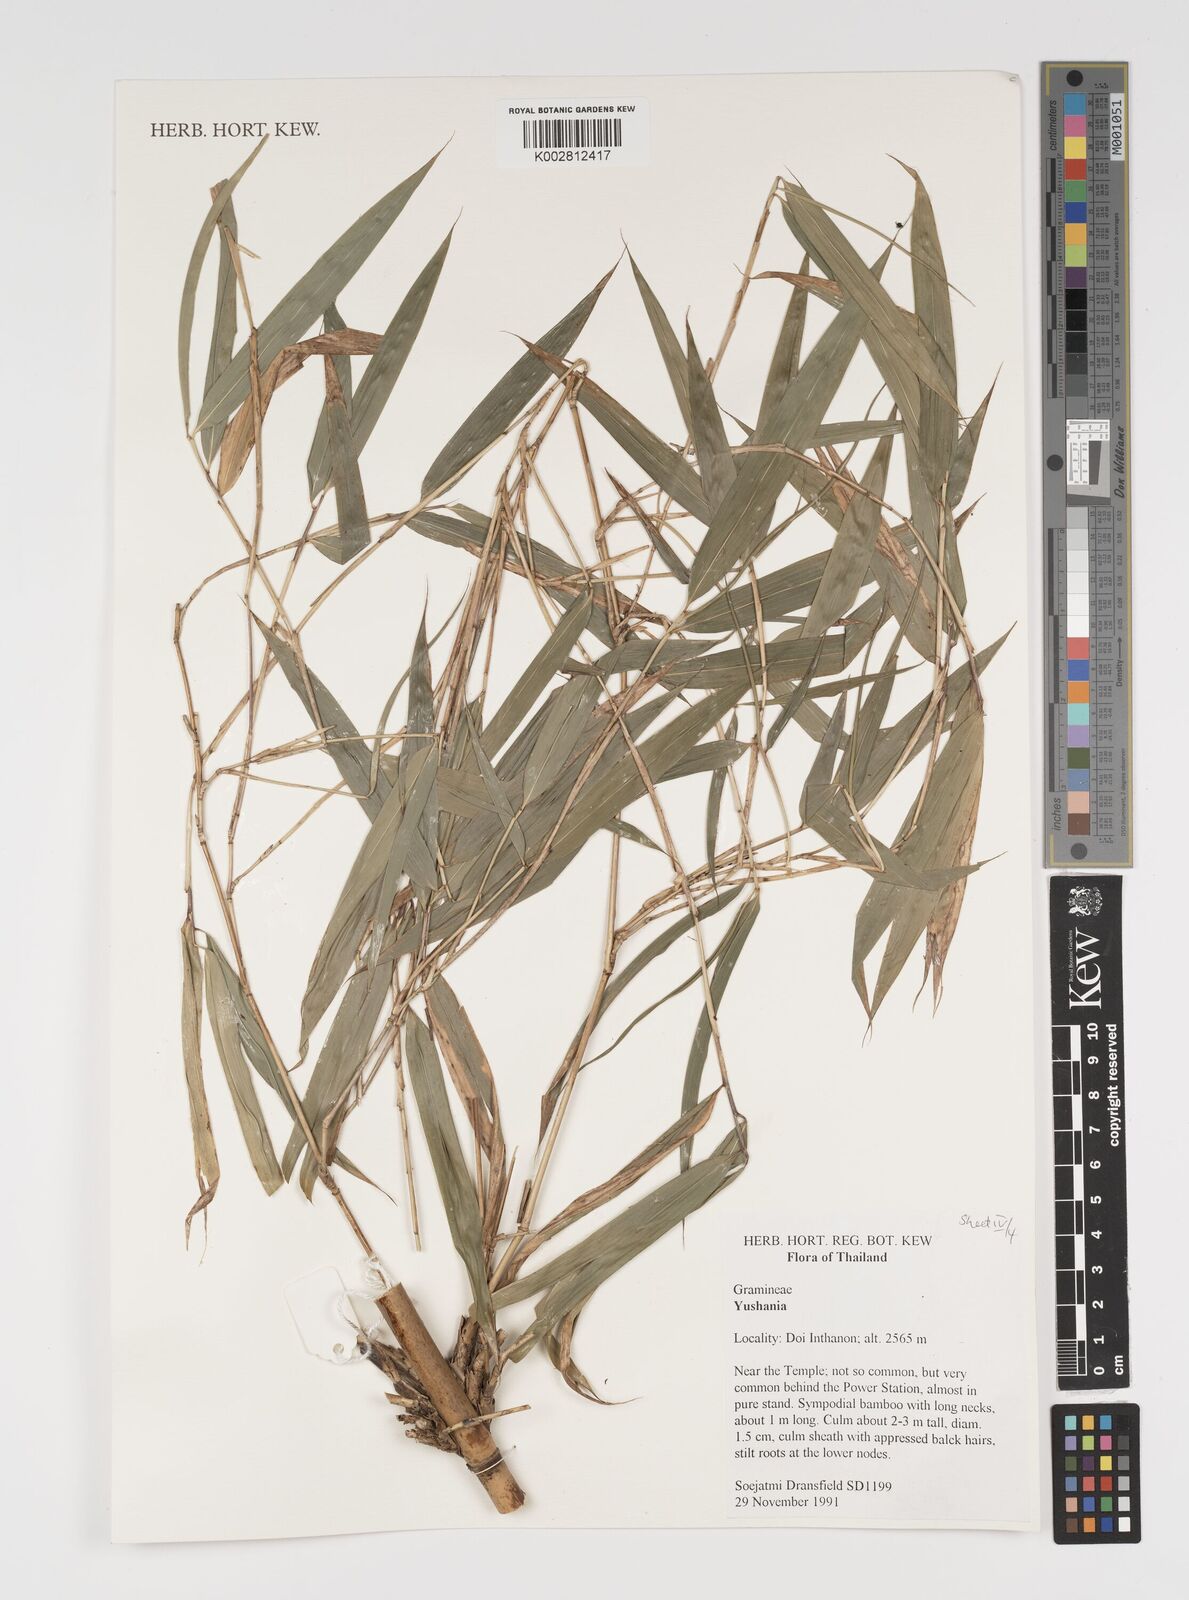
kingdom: Plantae
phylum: Tracheophyta
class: Liliopsida
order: Poales
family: Poaceae
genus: Yushania
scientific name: Yushania
